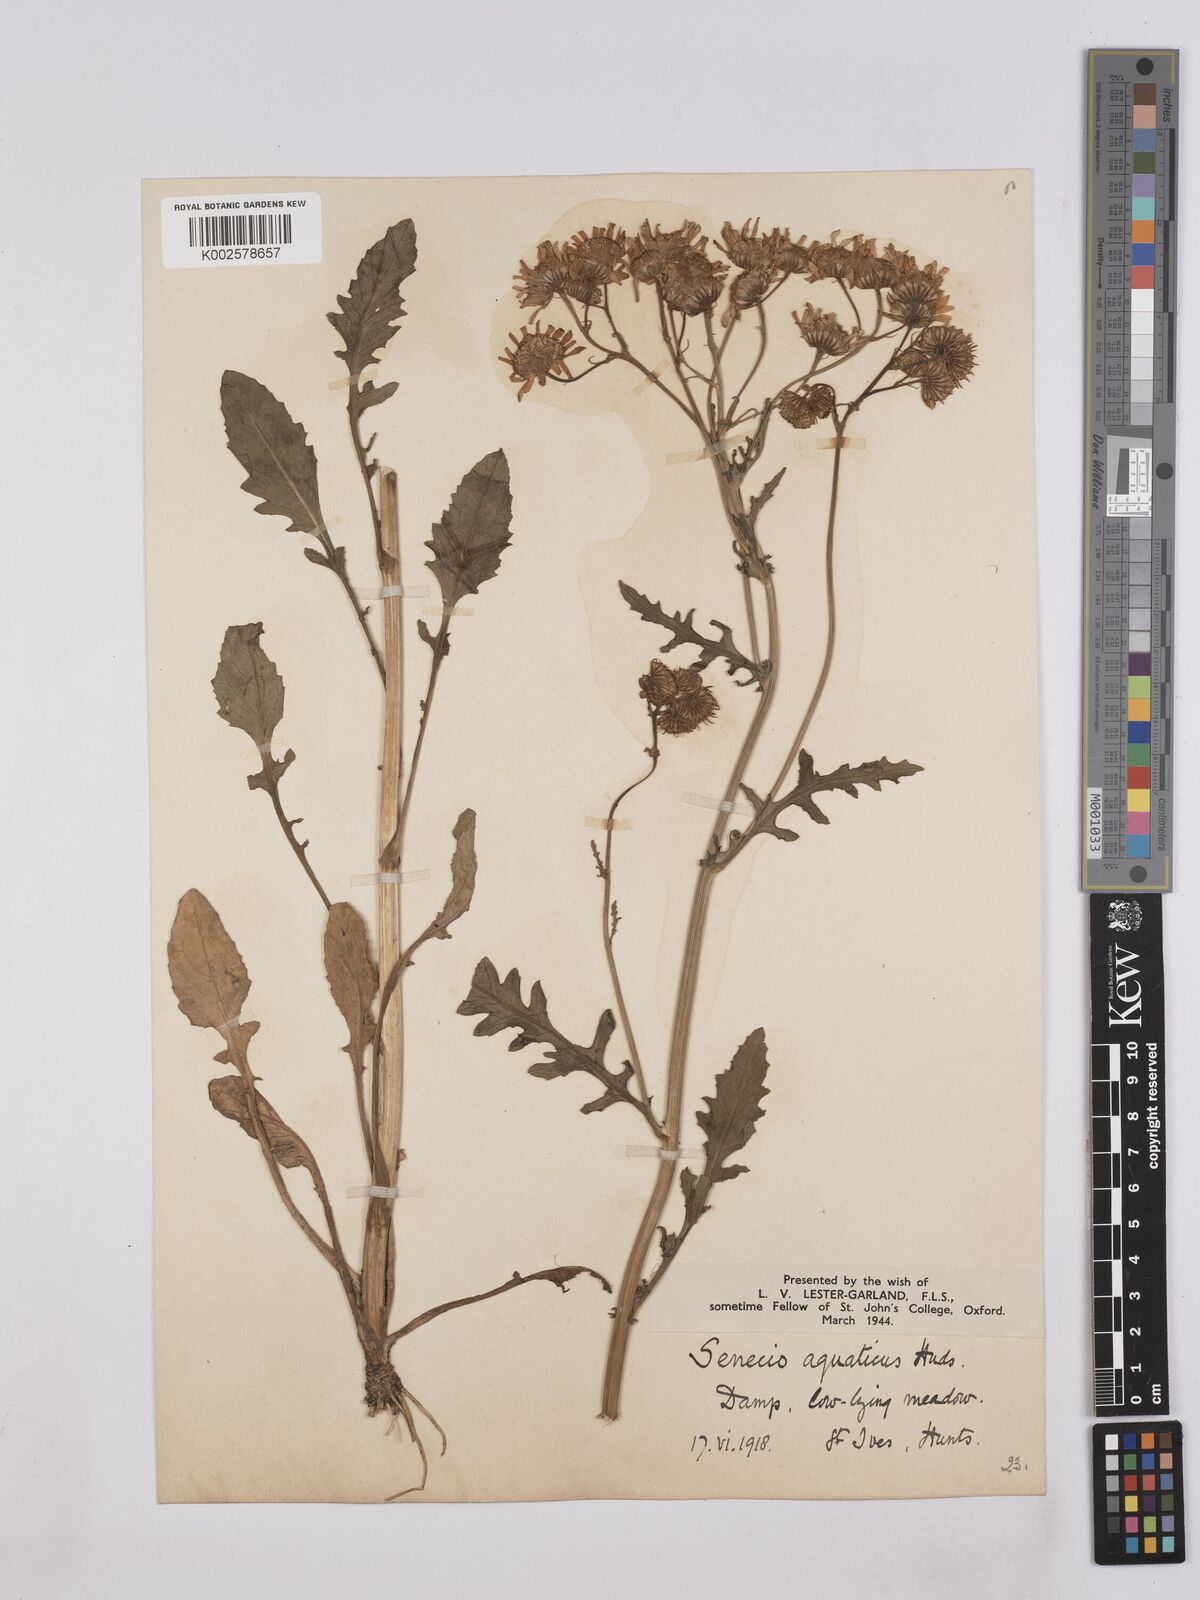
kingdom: Plantae
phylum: Tracheophyta
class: Magnoliopsida
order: Asterales
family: Asteraceae
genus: Jacobaea
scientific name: Jacobaea aquatica
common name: Water ragwort
